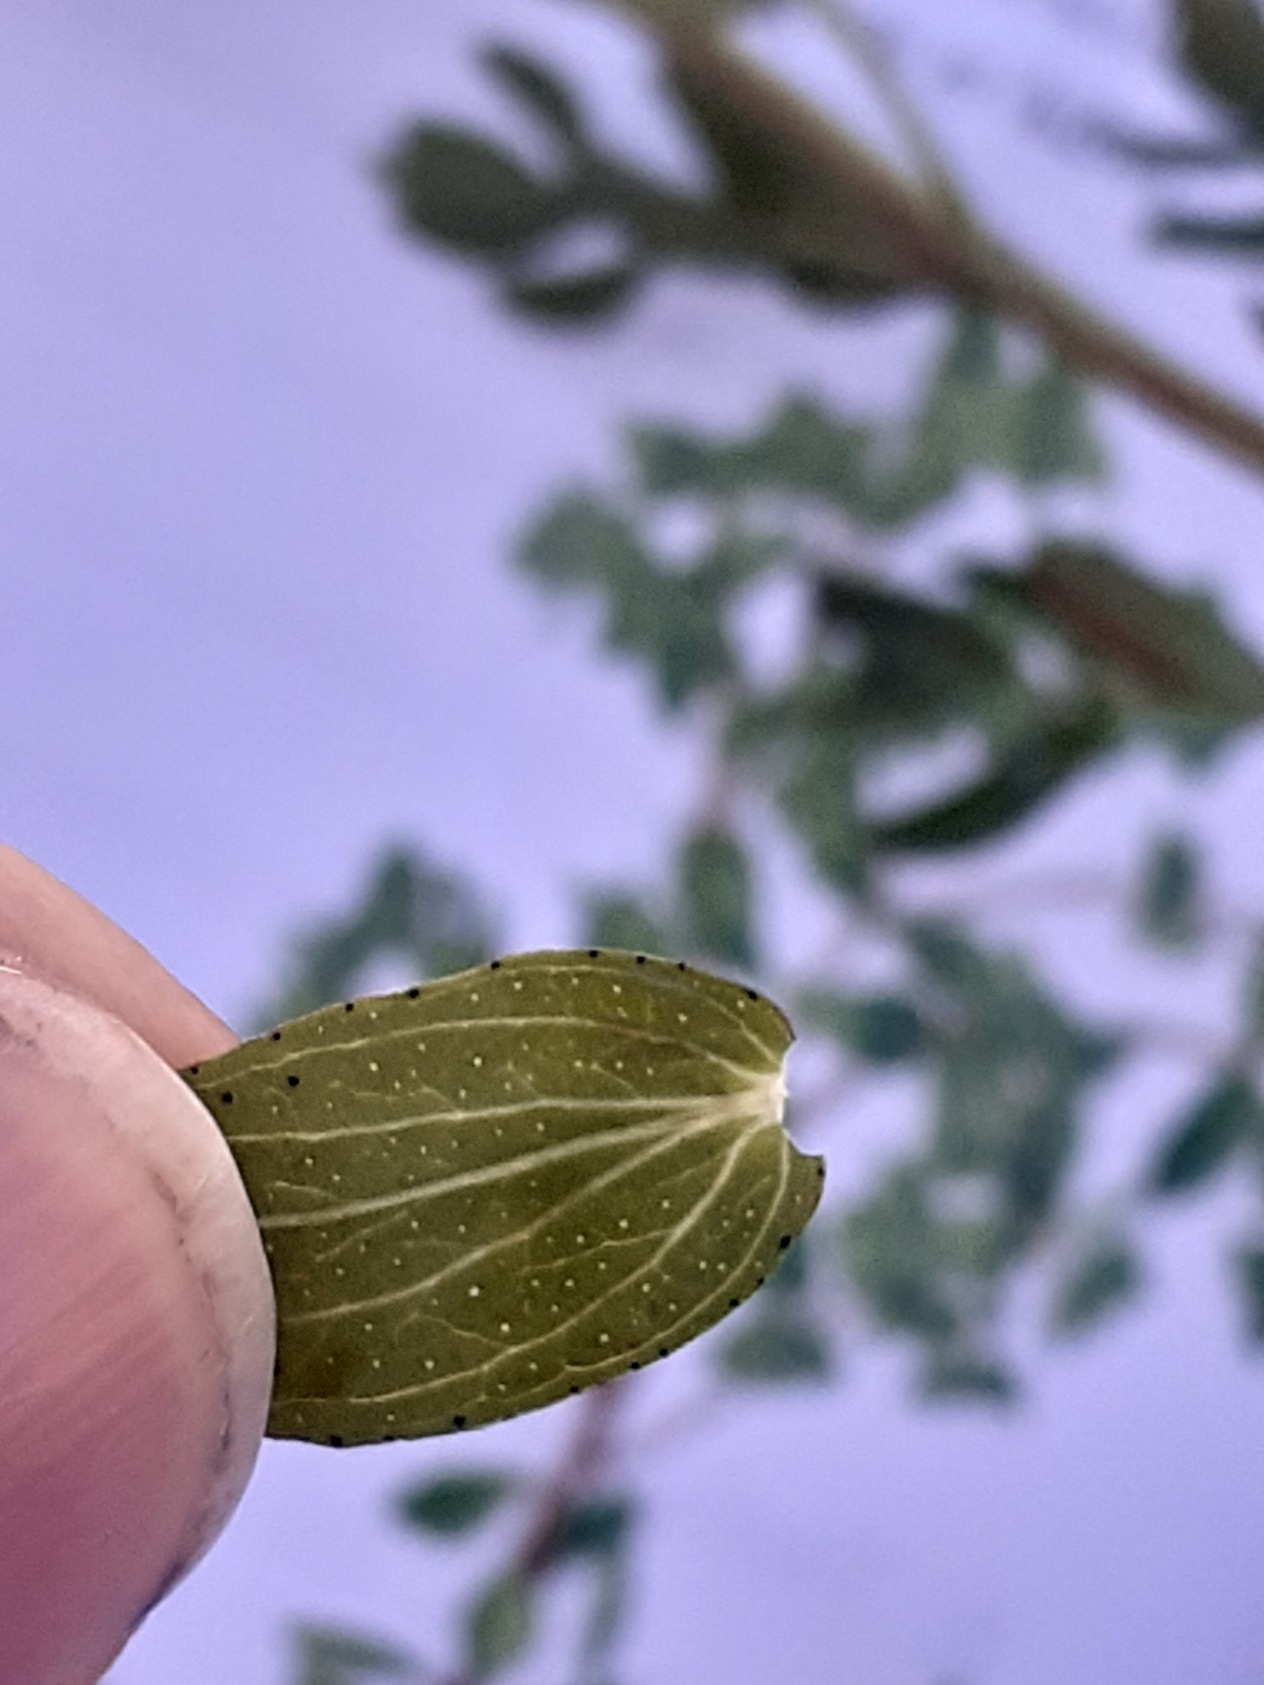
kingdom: Plantae
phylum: Tracheophyta
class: Magnoliopsida
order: Malpighiales
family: Hypericaceae
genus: Hypericum
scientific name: Hypericum perforatum
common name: Prikbladet perikon
